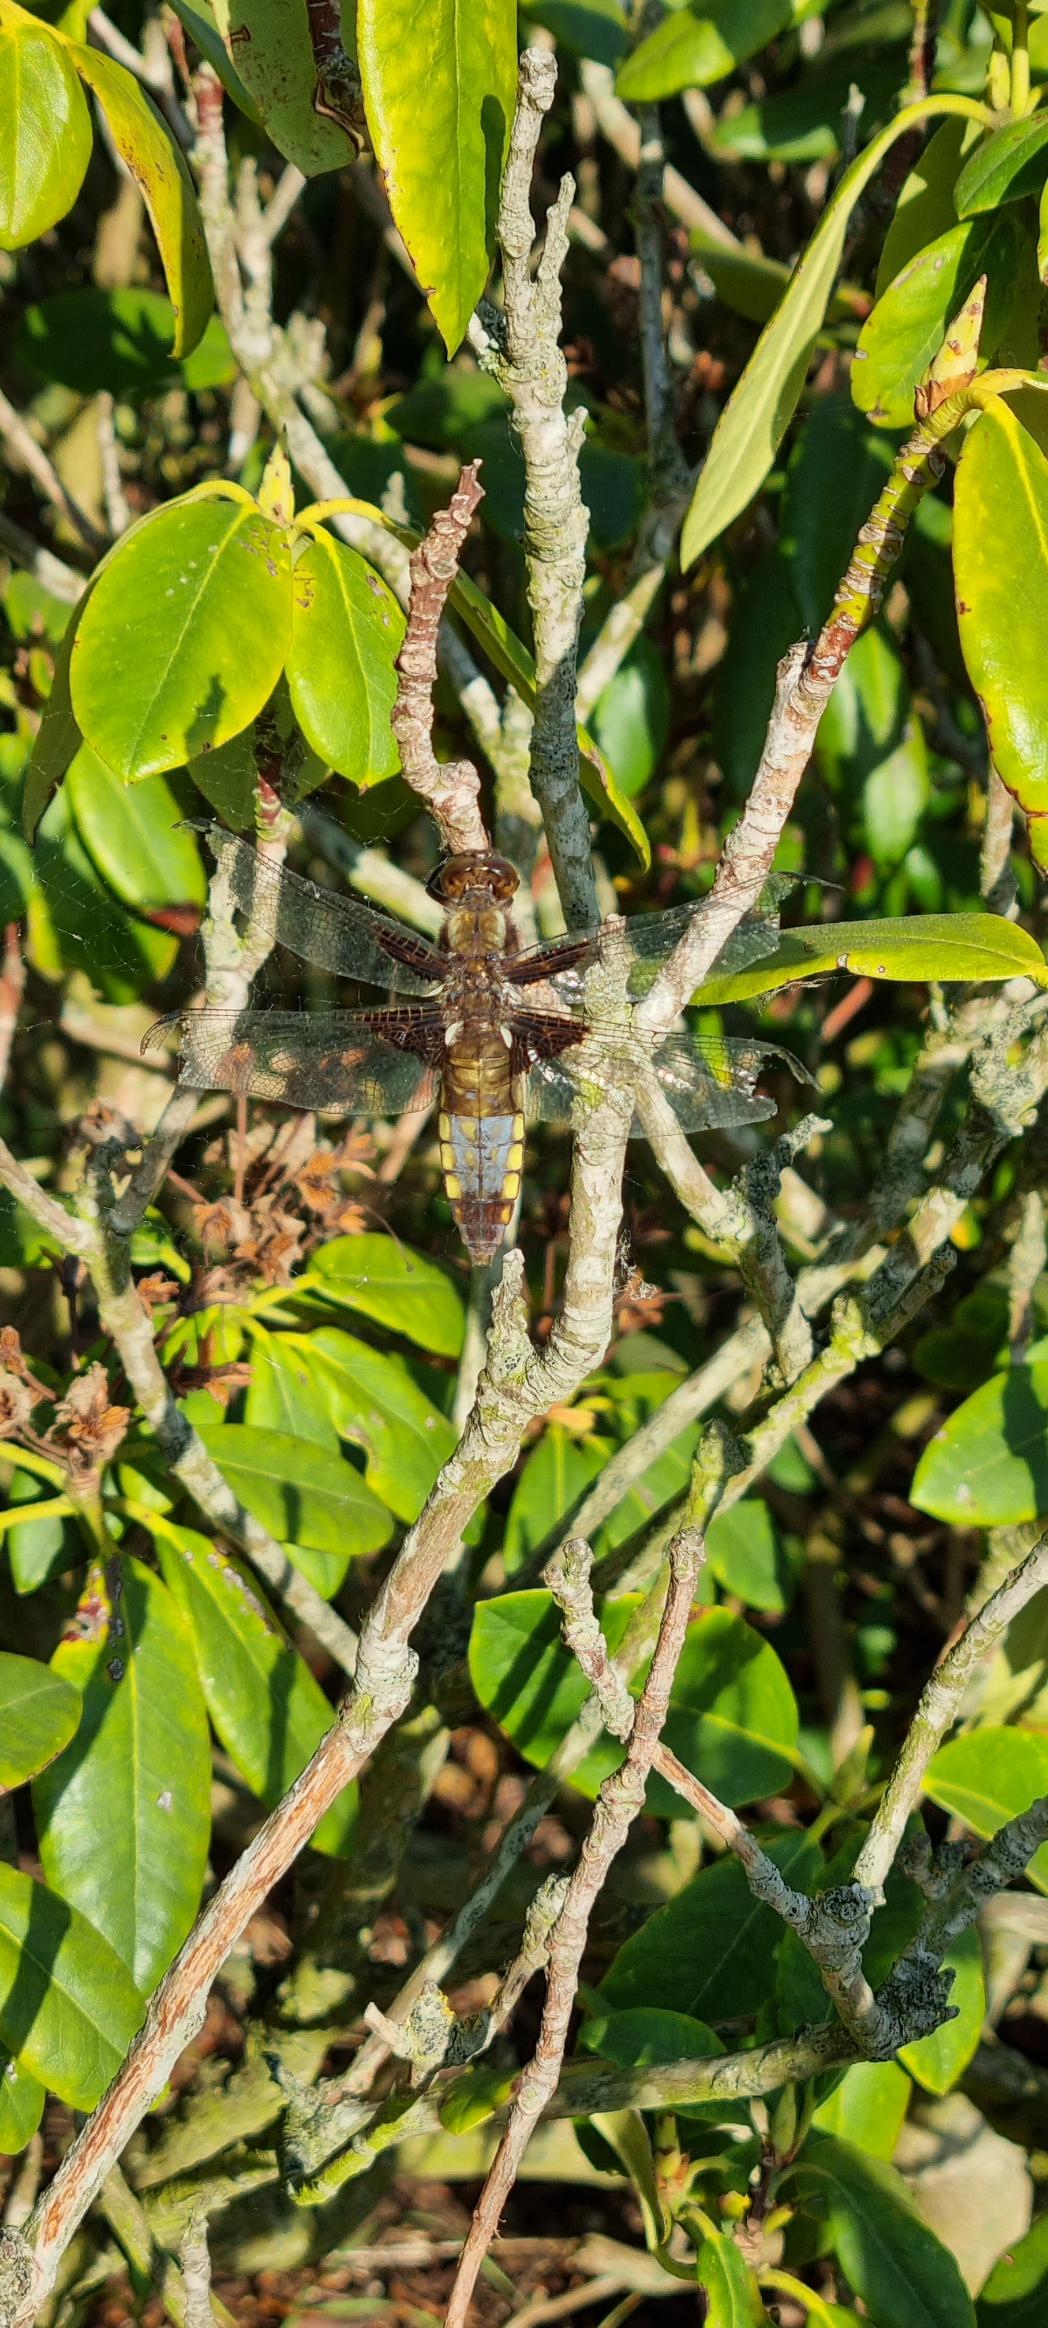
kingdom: Animalia
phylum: Arthropoda
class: Insecta
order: Odonata
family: Libellulidae
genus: Libellula
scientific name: Libellula depressa
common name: Blå libel
